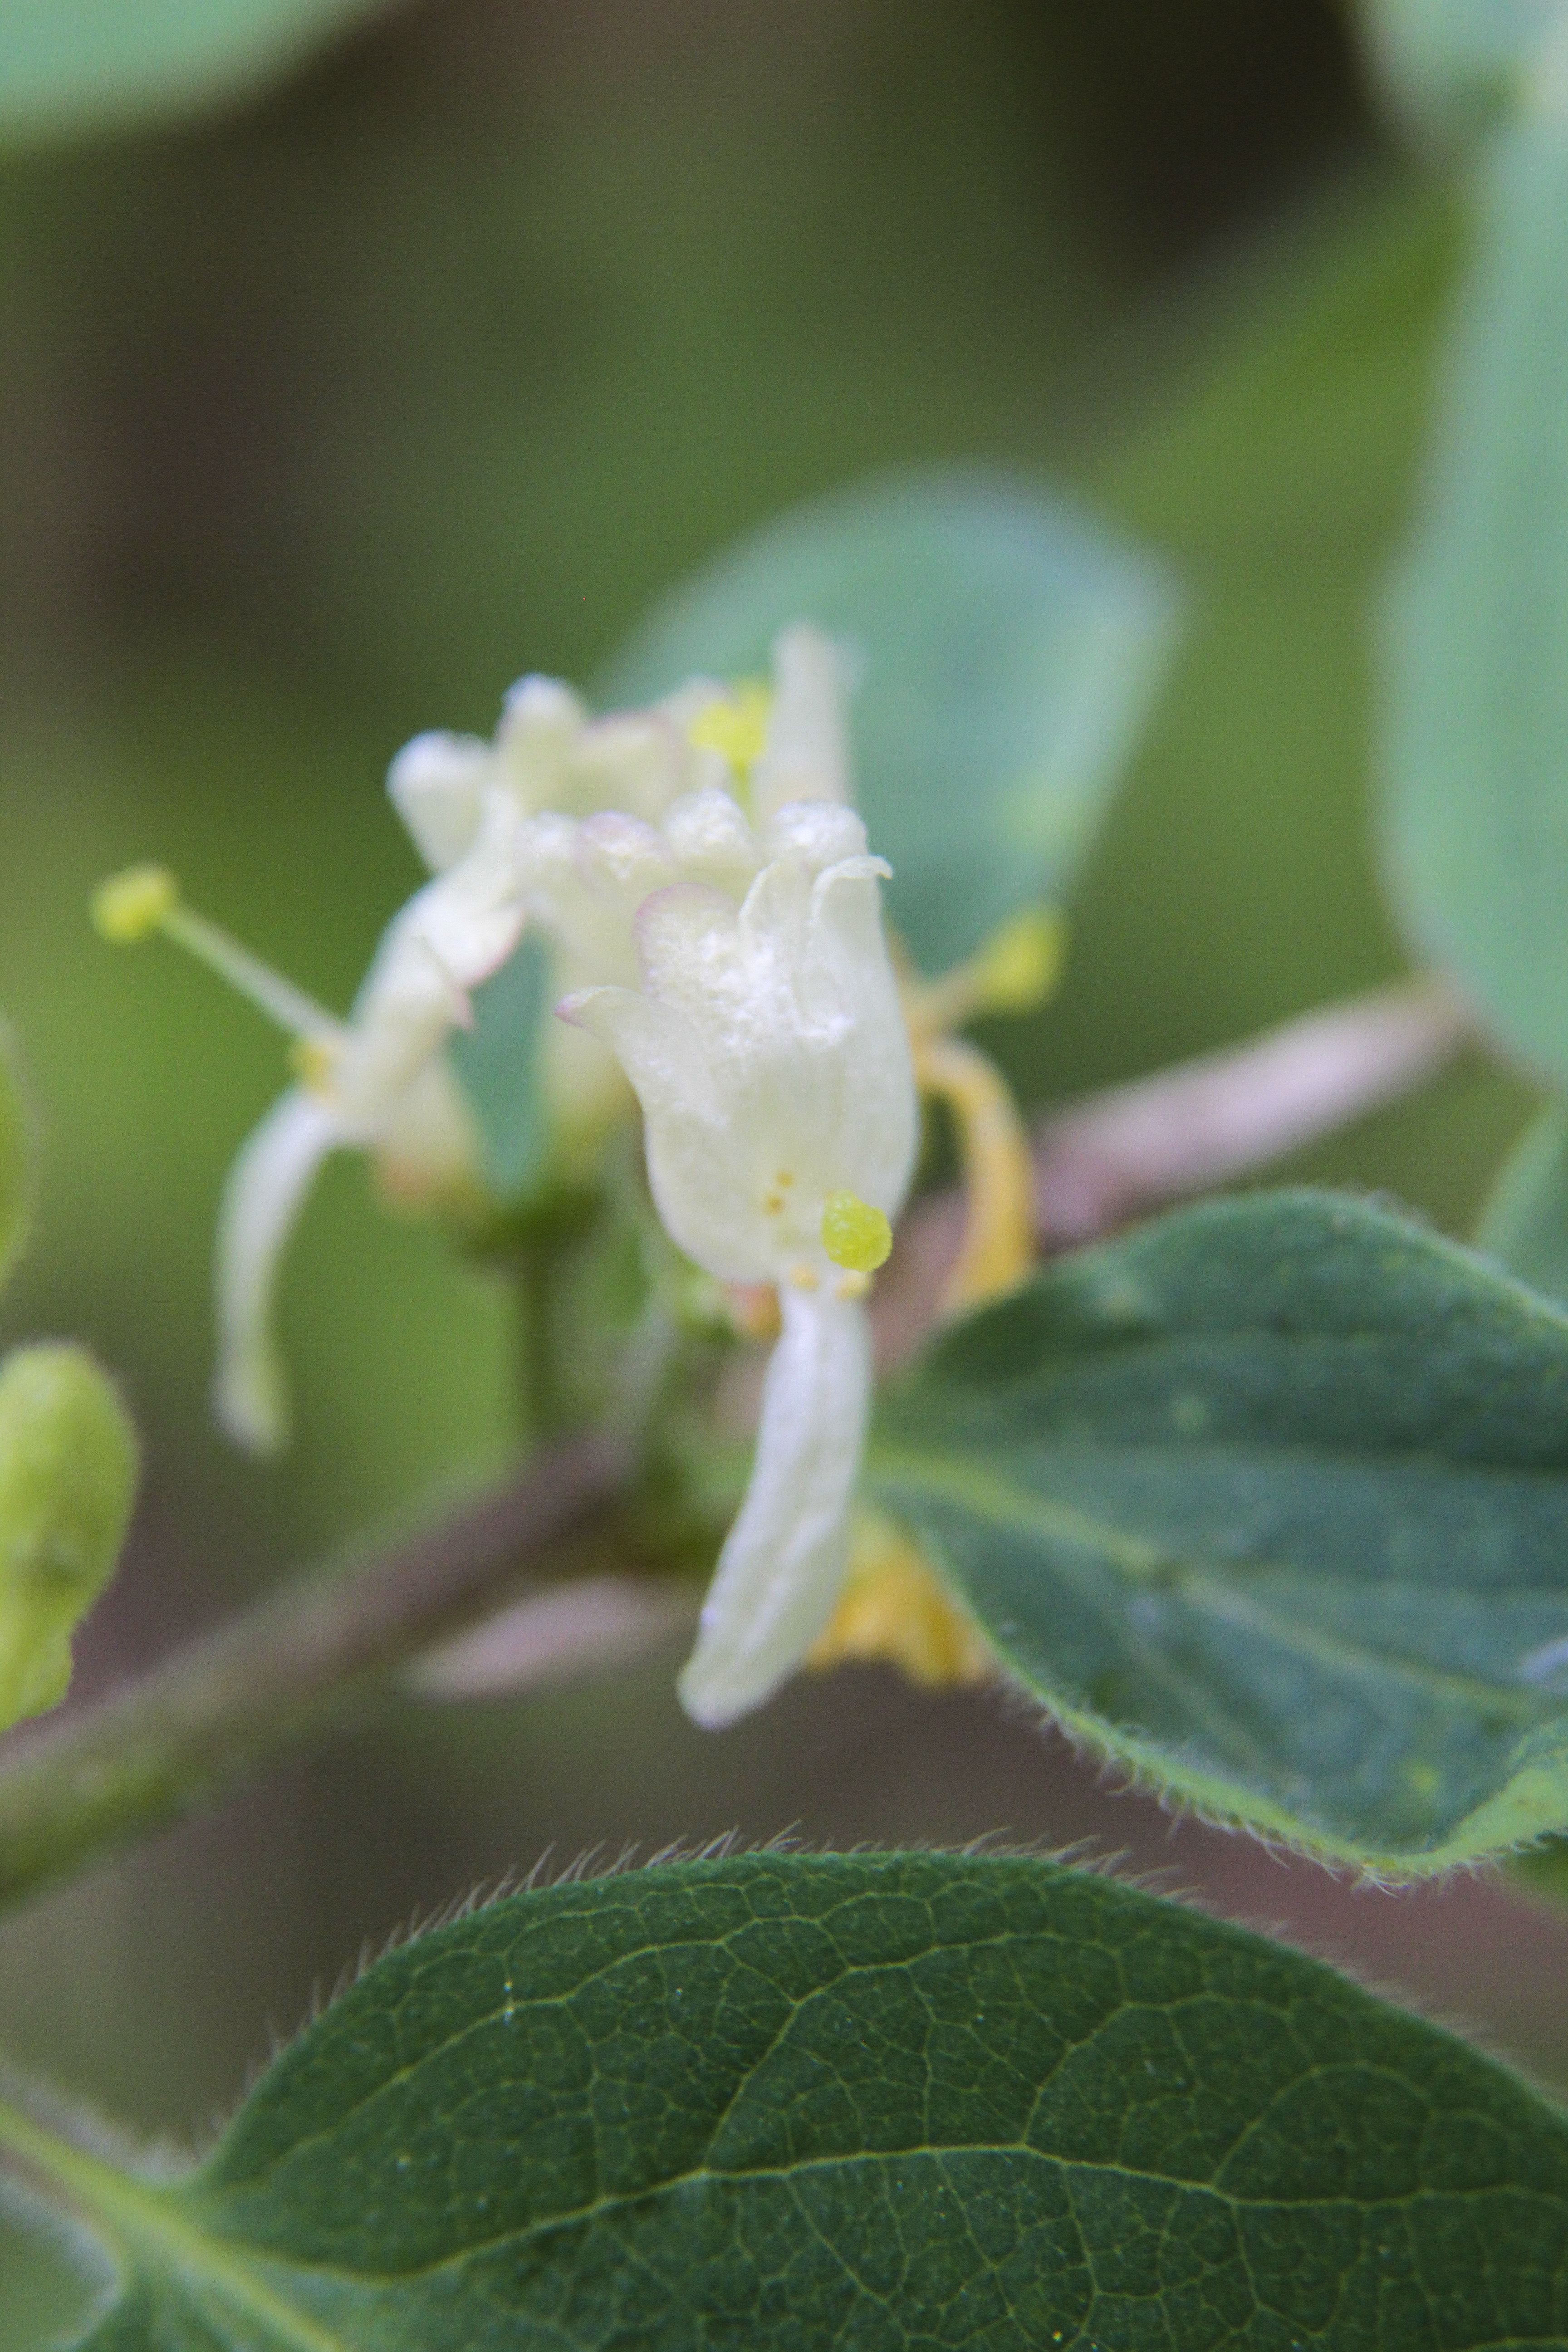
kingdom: Plantae
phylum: Tracheophyta
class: Magnoliopsida
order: Dipsacales
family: Caprifoliaceae
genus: Lonicera
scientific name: Lonicera
